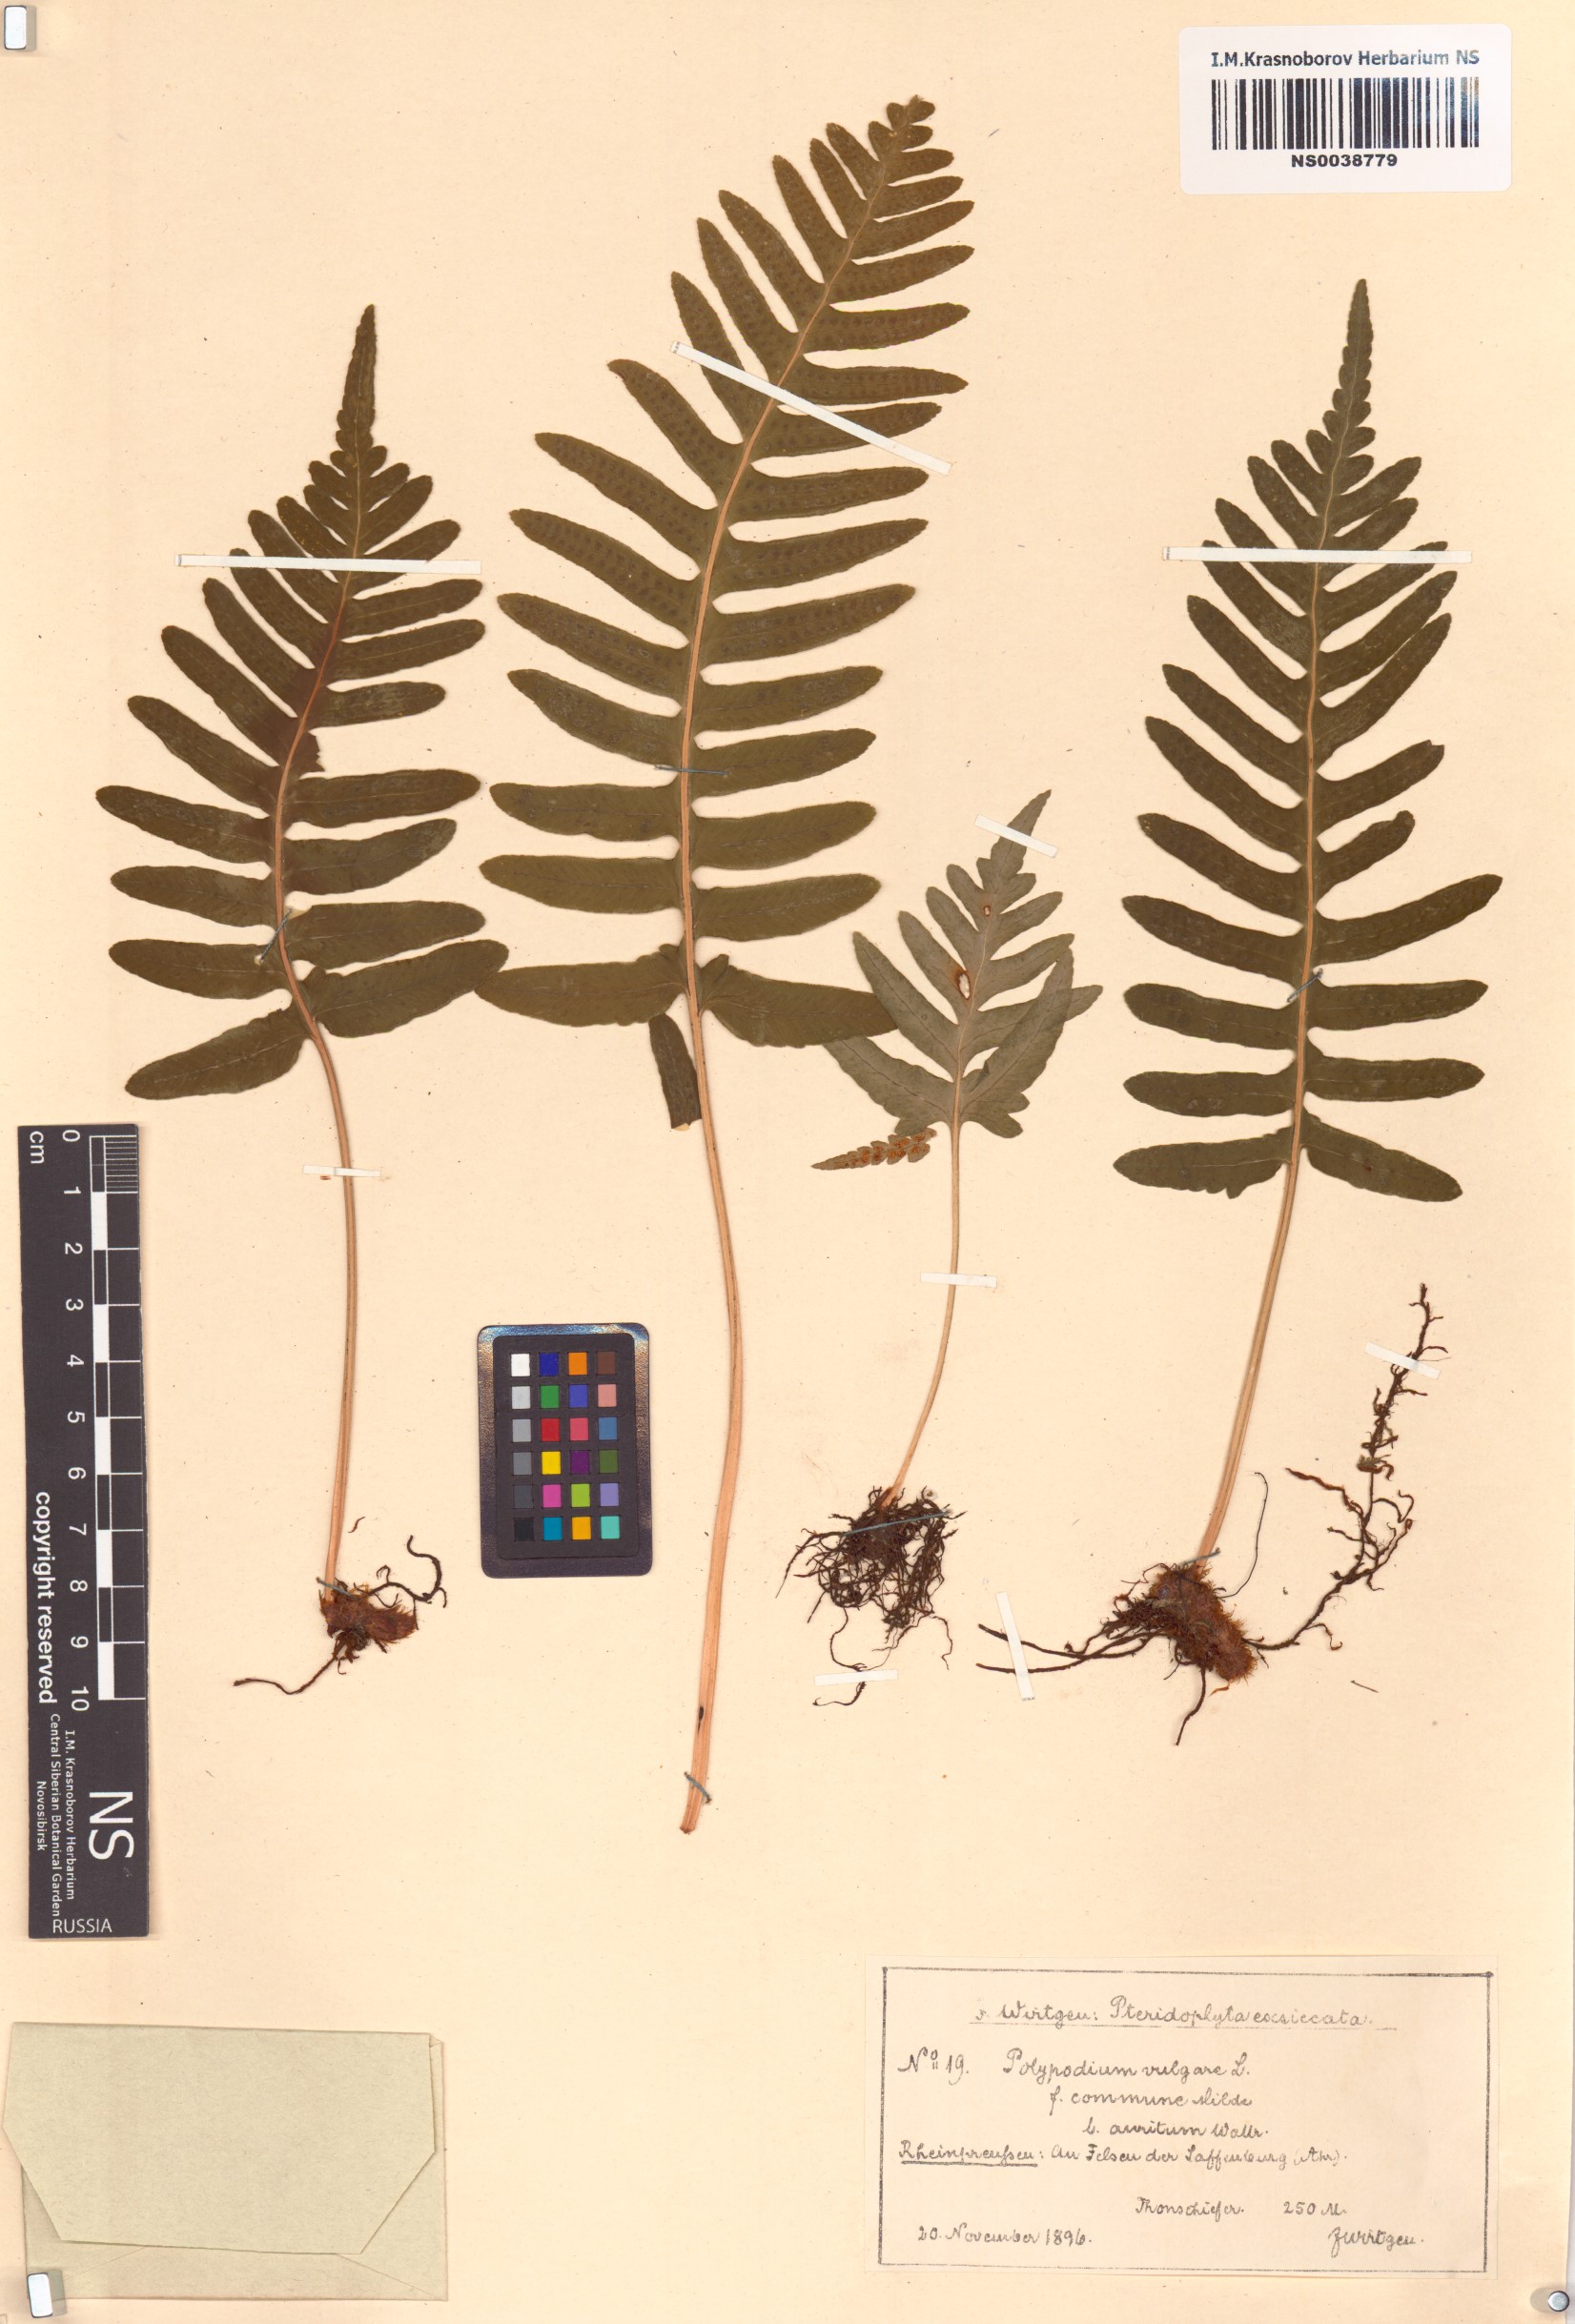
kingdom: Plantae
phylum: Tracheophyta
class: Polypodiopsida
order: Polypodiales
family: Polypodiaceae
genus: Polypodium
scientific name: Polypodium glycyrrhiza
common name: Licorice fern
